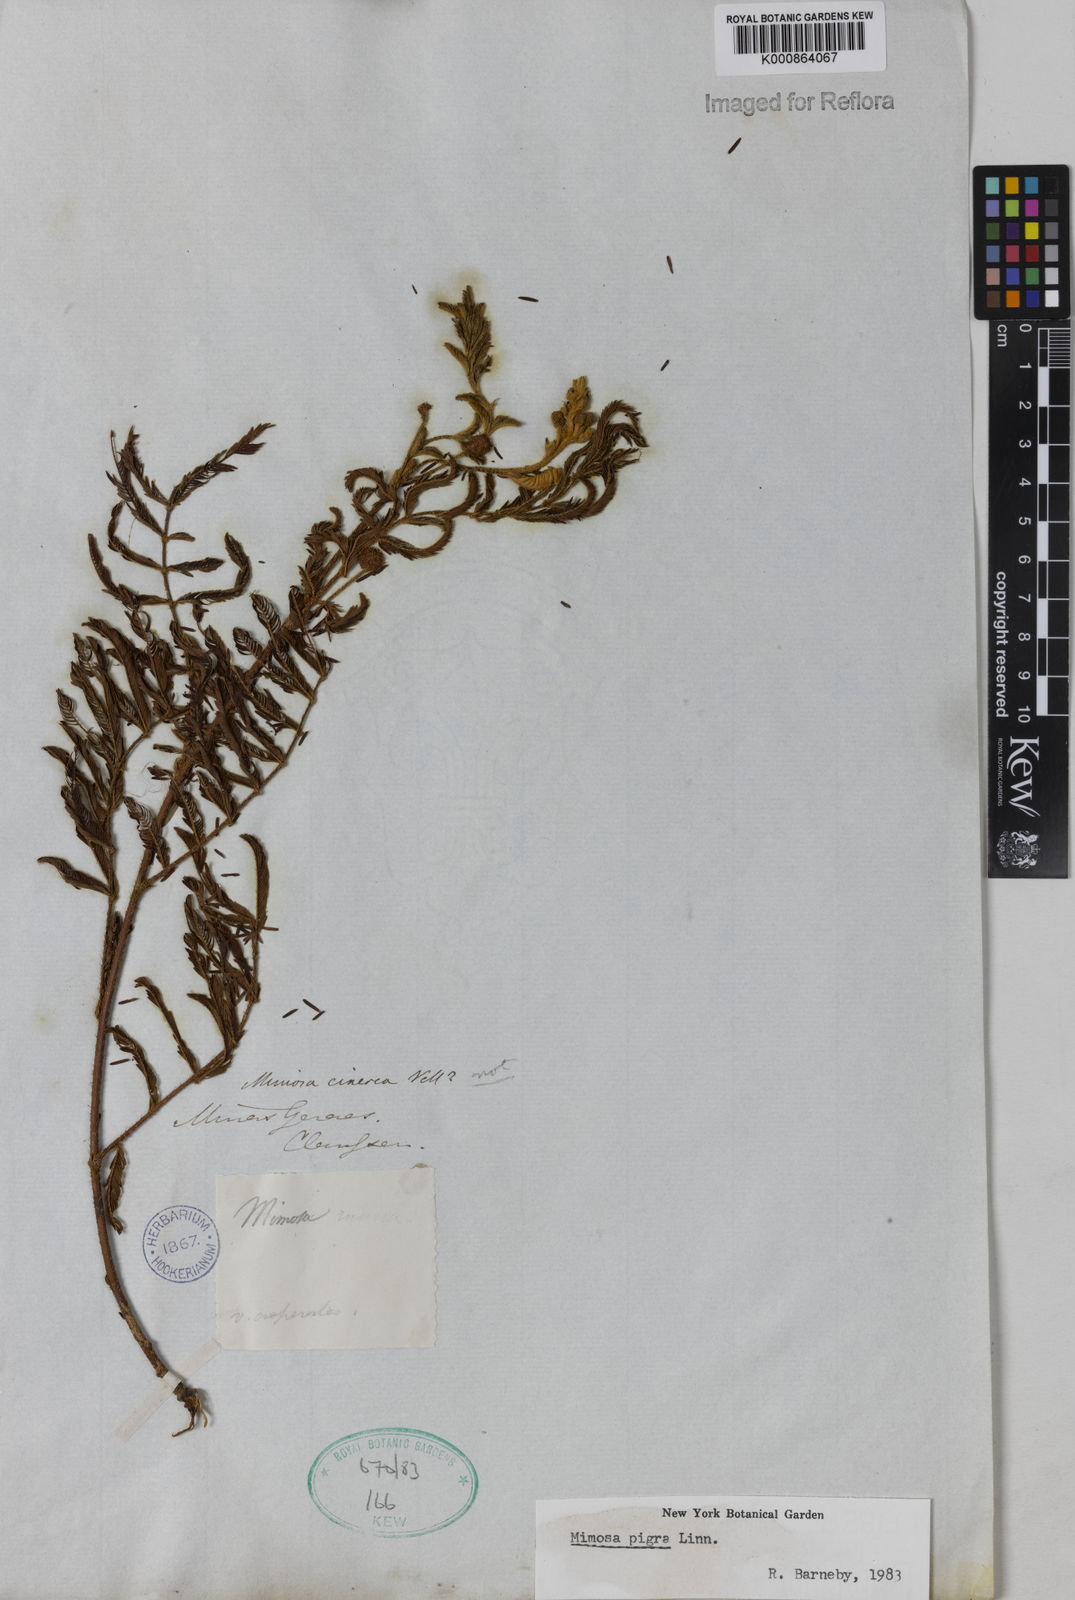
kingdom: Plantae
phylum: Tracheophyta
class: Magnoliopsida
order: Fabales
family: Fabaceae
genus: Mimosa
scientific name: Mimosa pigra
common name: Black mimosa
